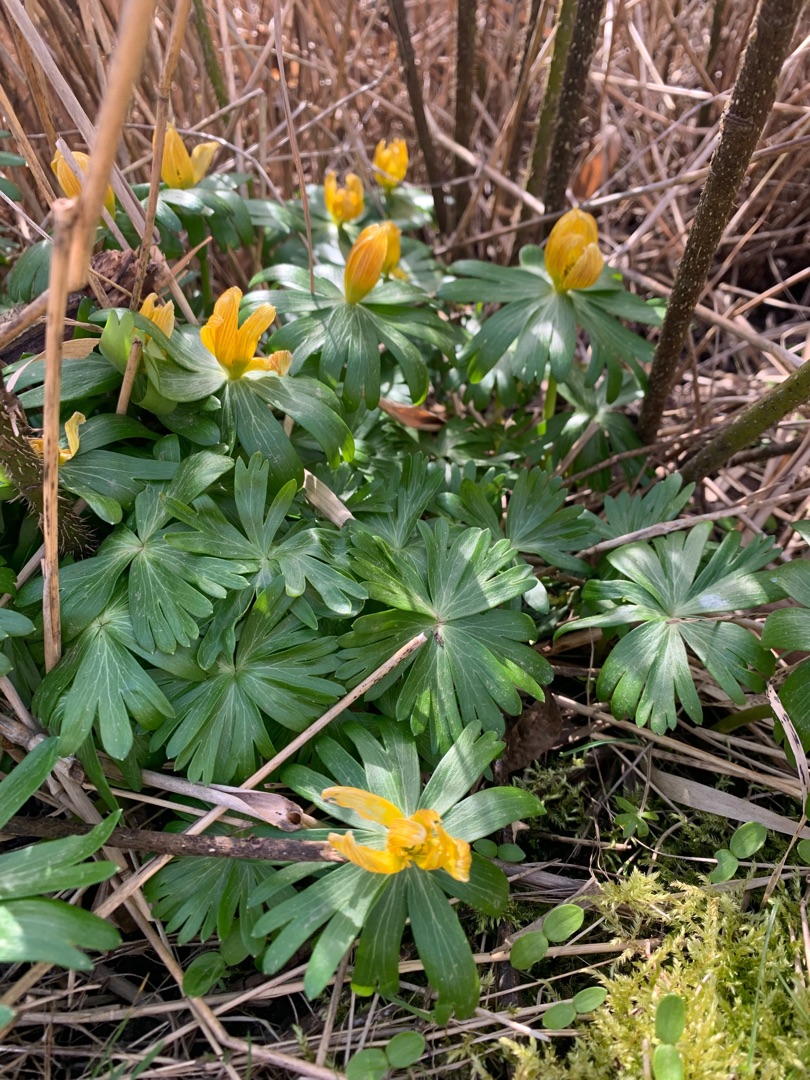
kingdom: Plantae
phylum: Tracheophyta
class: Magnoliopsida
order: Ranunculales
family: Ranunculaceae
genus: Eranthis
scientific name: Eranthis hyemalis
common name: Erantis
